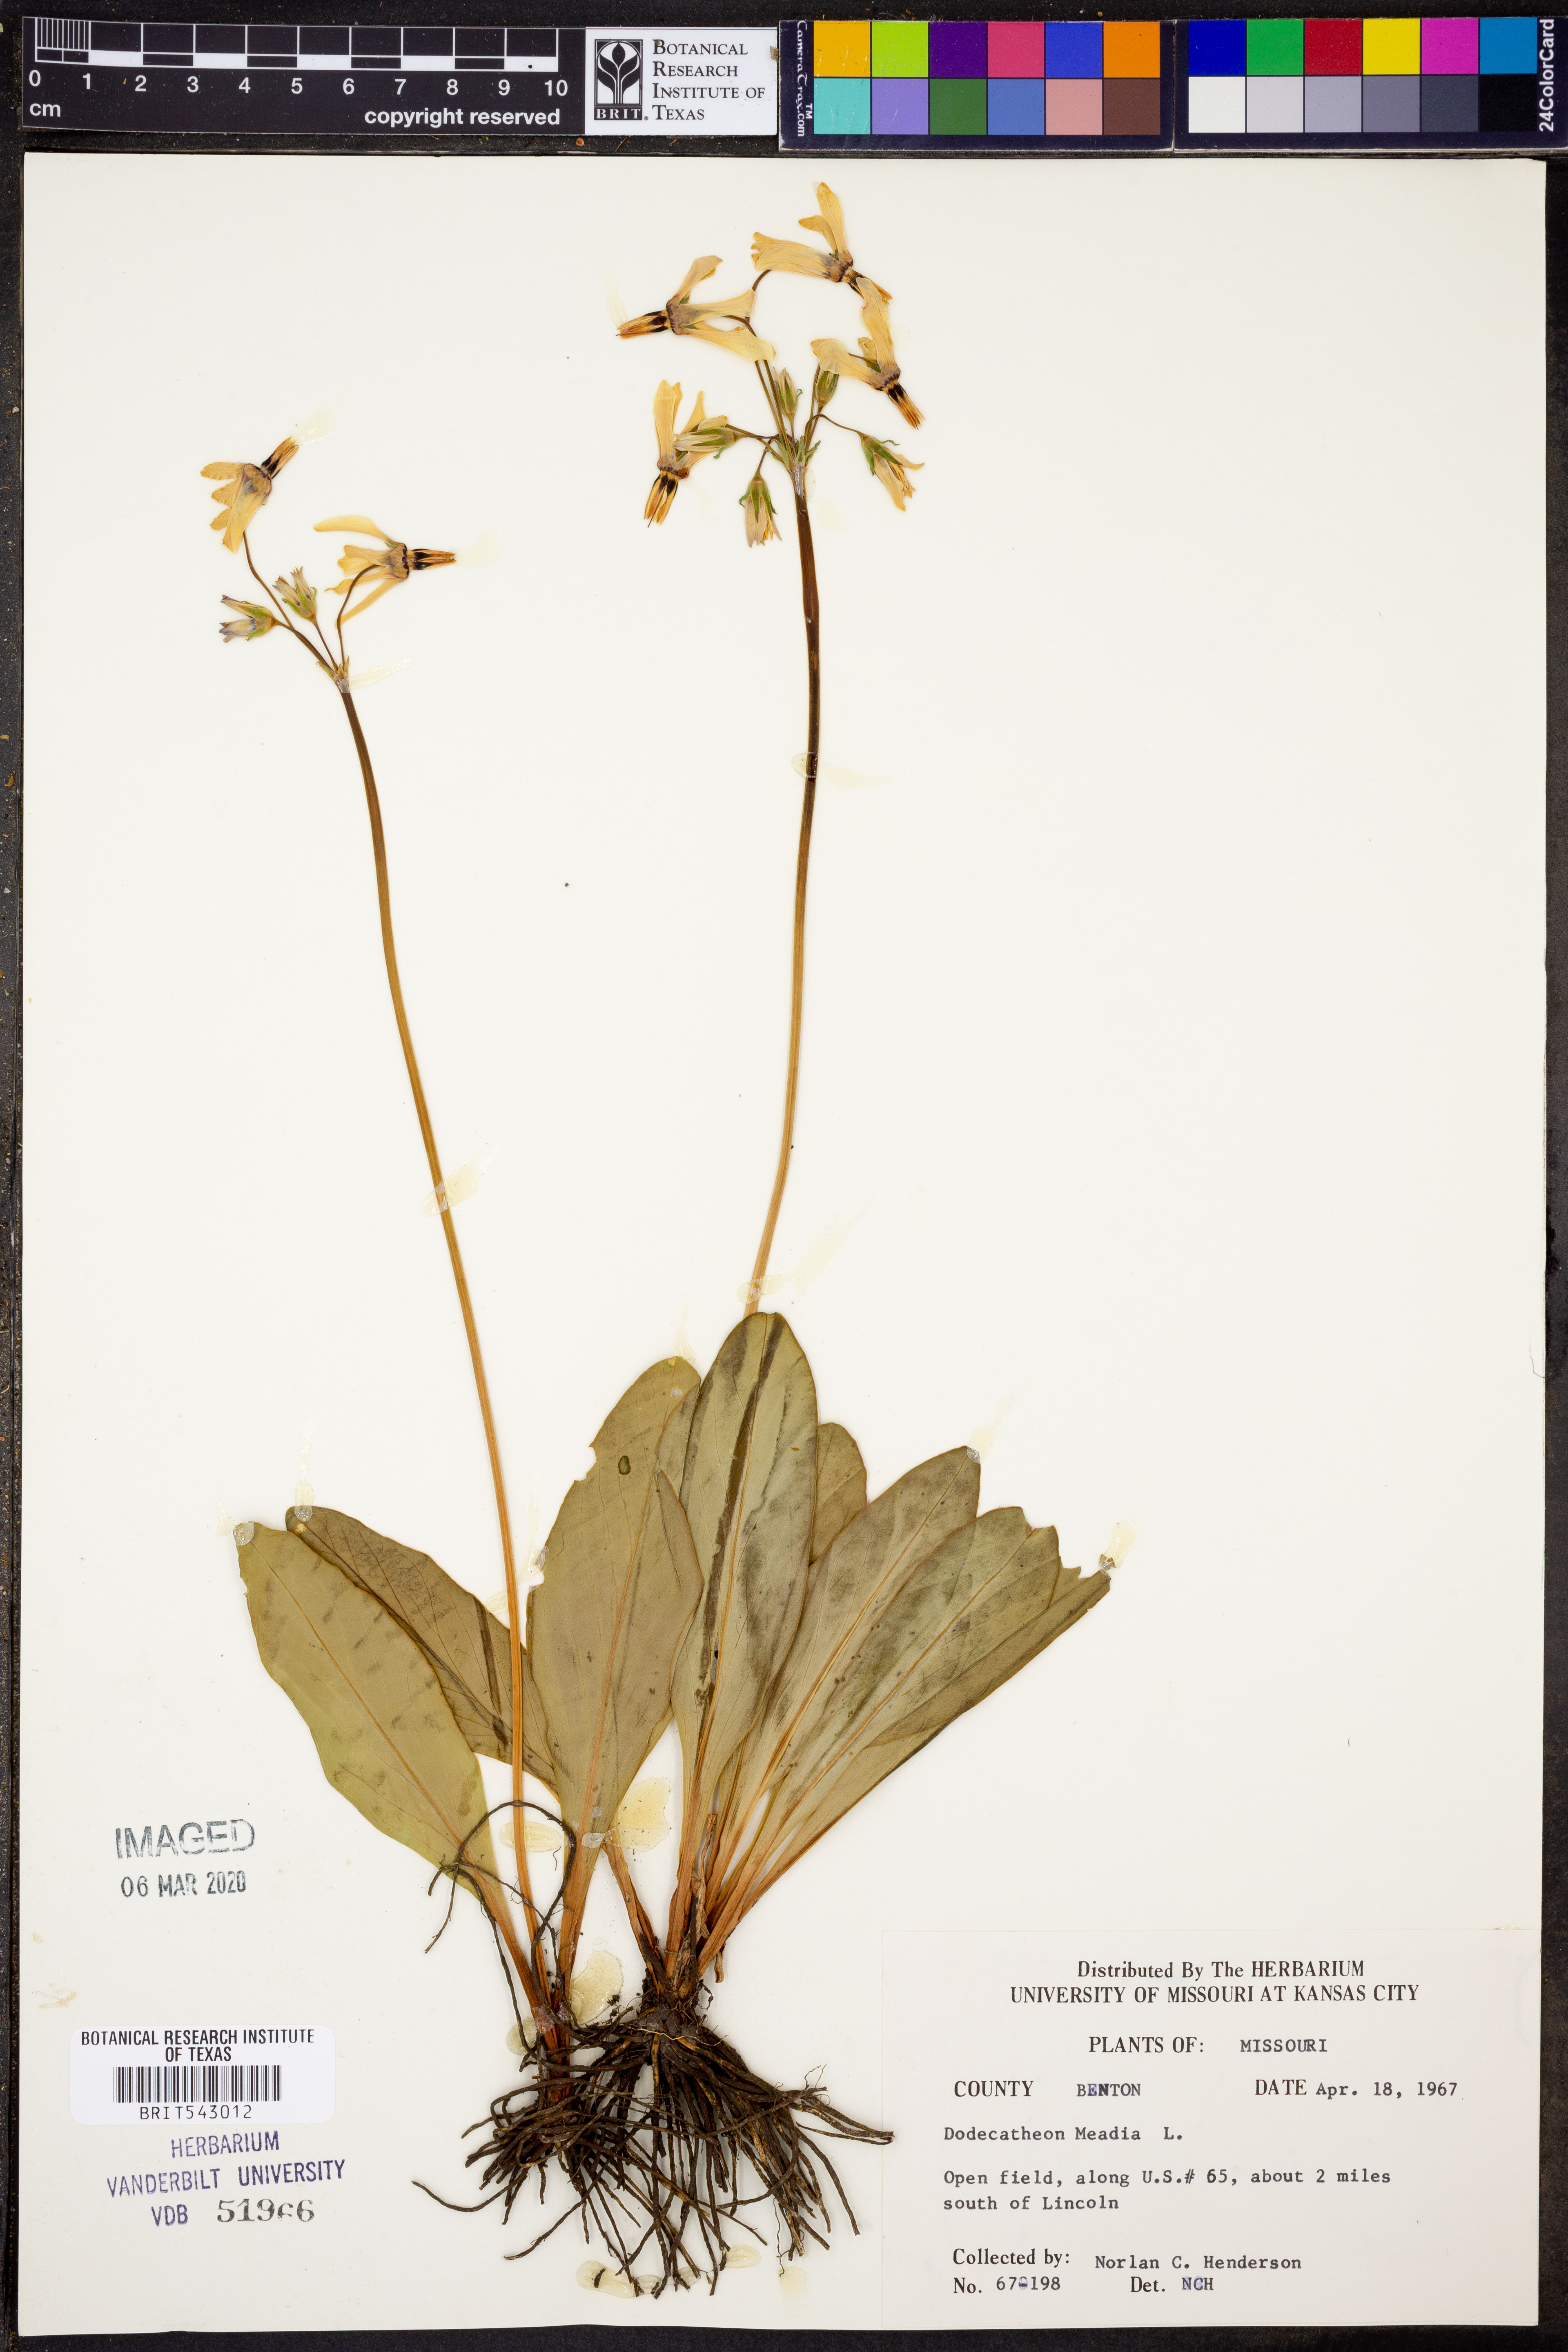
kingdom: Plantae
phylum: Tracheophyta
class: Magnoliopsida
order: Ericales
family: Primulaceae
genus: Dodecatheon
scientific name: Dodecatheon meadia
